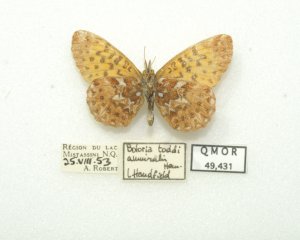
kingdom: Animalia
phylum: Arthropoda
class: Insecta
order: Lepidoptera
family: Nymphalidae
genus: Boloria
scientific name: Boloria chariclea
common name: Arctic Fritillary
